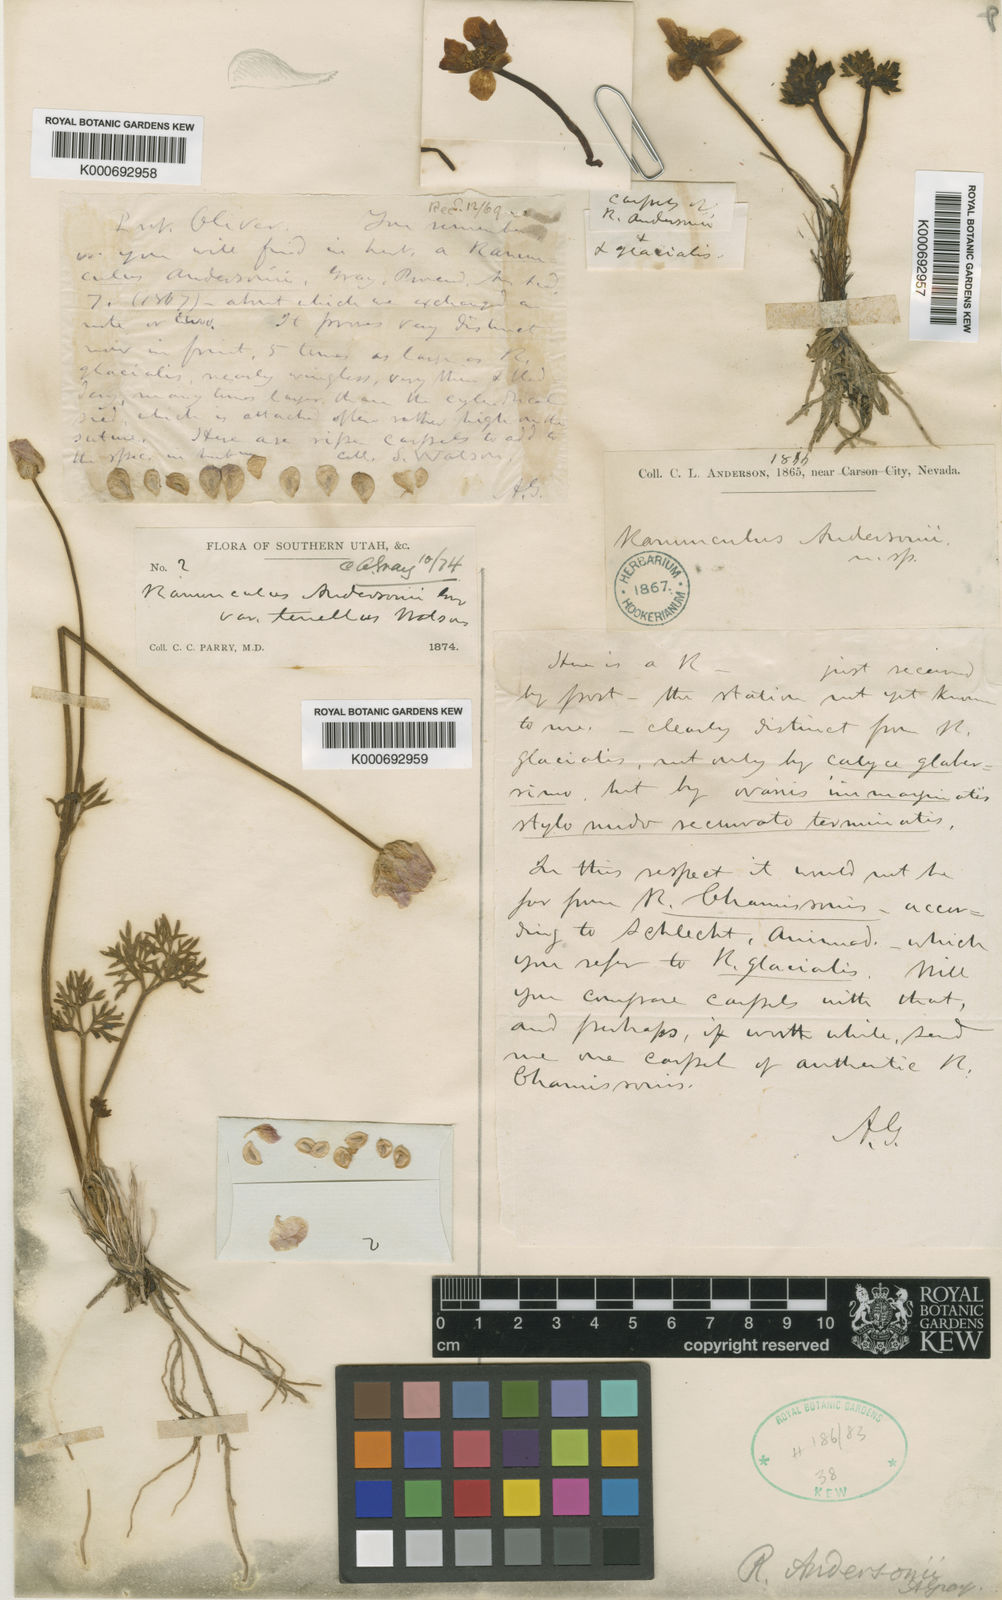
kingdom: Plantae
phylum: Tracheophyta
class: Magnoliopsida
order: Ranunculales
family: Ranunculaceae
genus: Beckwithia
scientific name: Beckwithia andersonii
